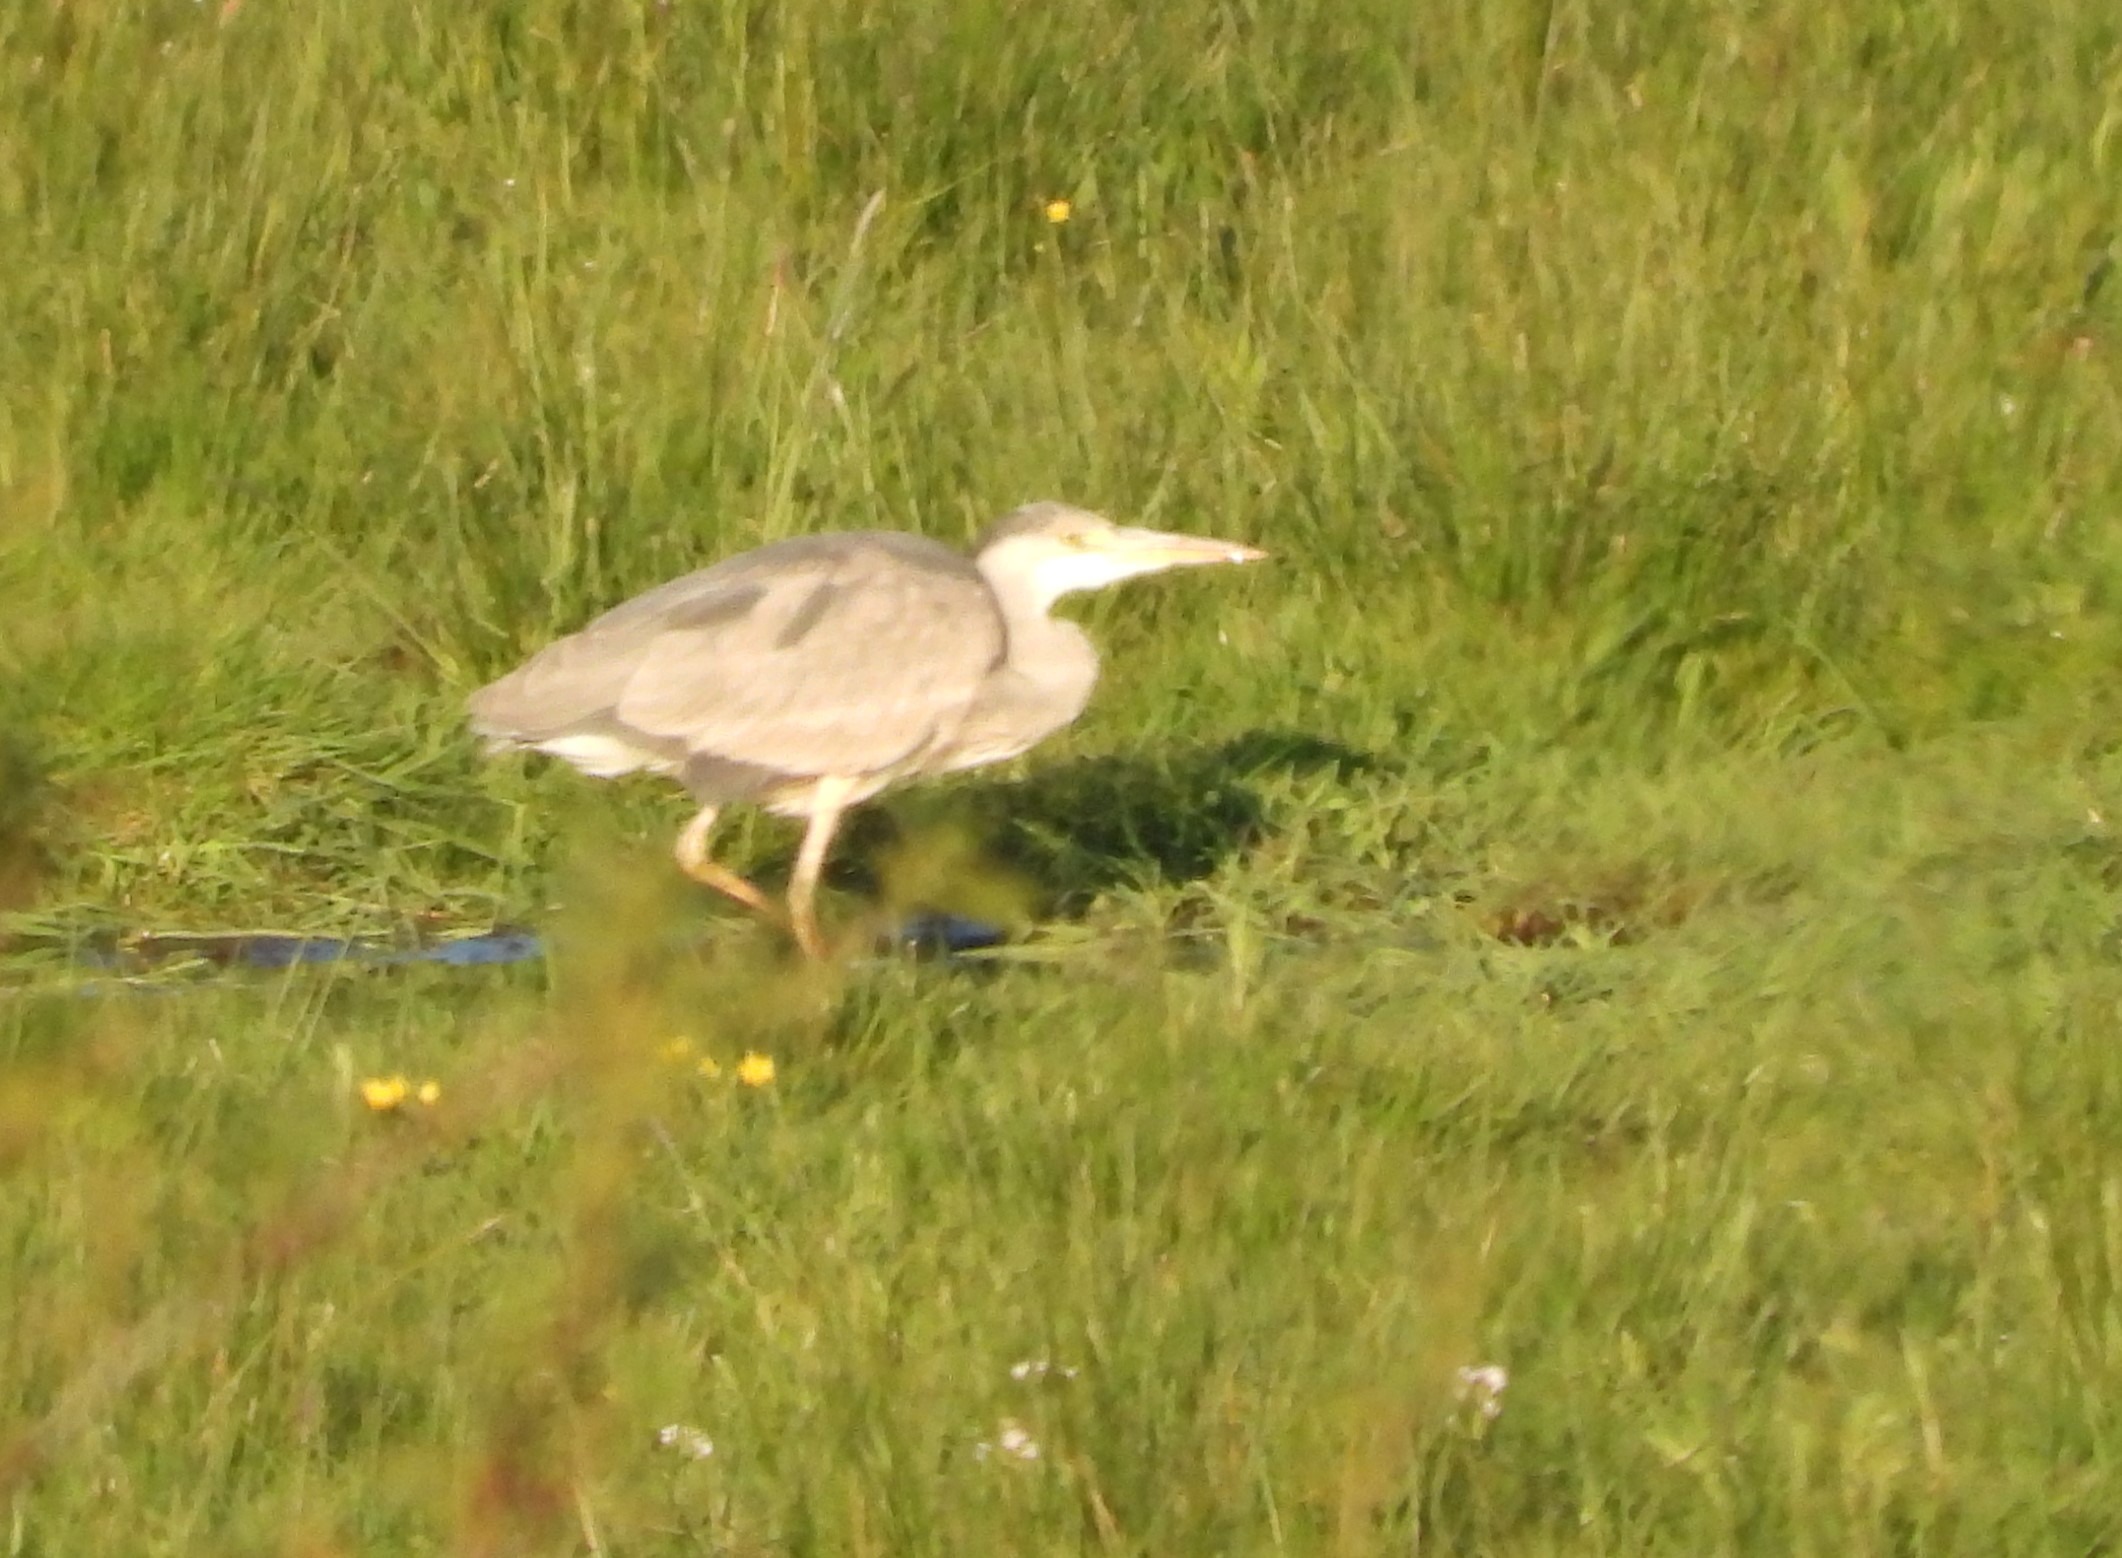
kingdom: Animalia
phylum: Chordata
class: Aves
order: Pelecaniformes
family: Ardeidae
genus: Ardea
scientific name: Ardea cinerea
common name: Fiskehejre
